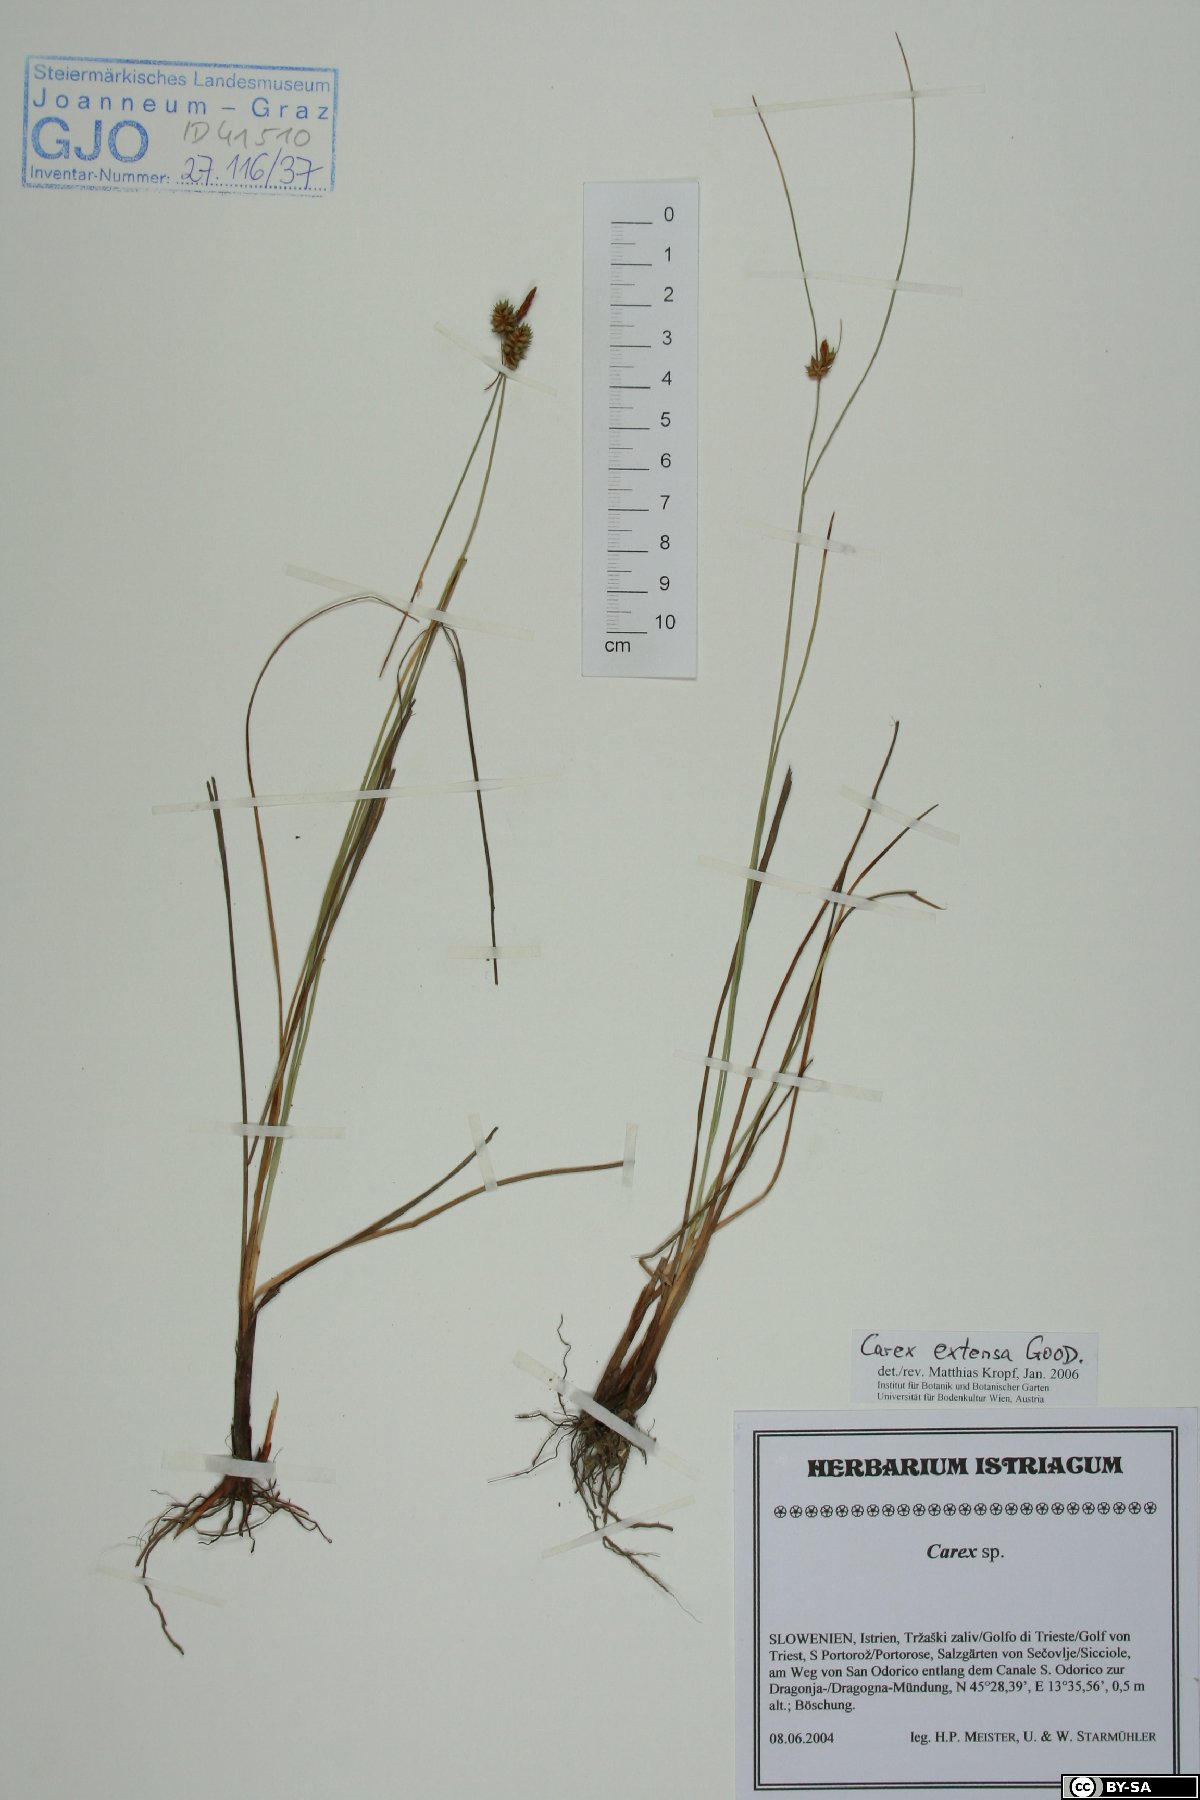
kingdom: Plantae
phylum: Tracheophyta
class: Liliopsida
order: Poales
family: Cyperaceae
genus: Carex
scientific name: Carex extensa
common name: Long-bracted sedge
